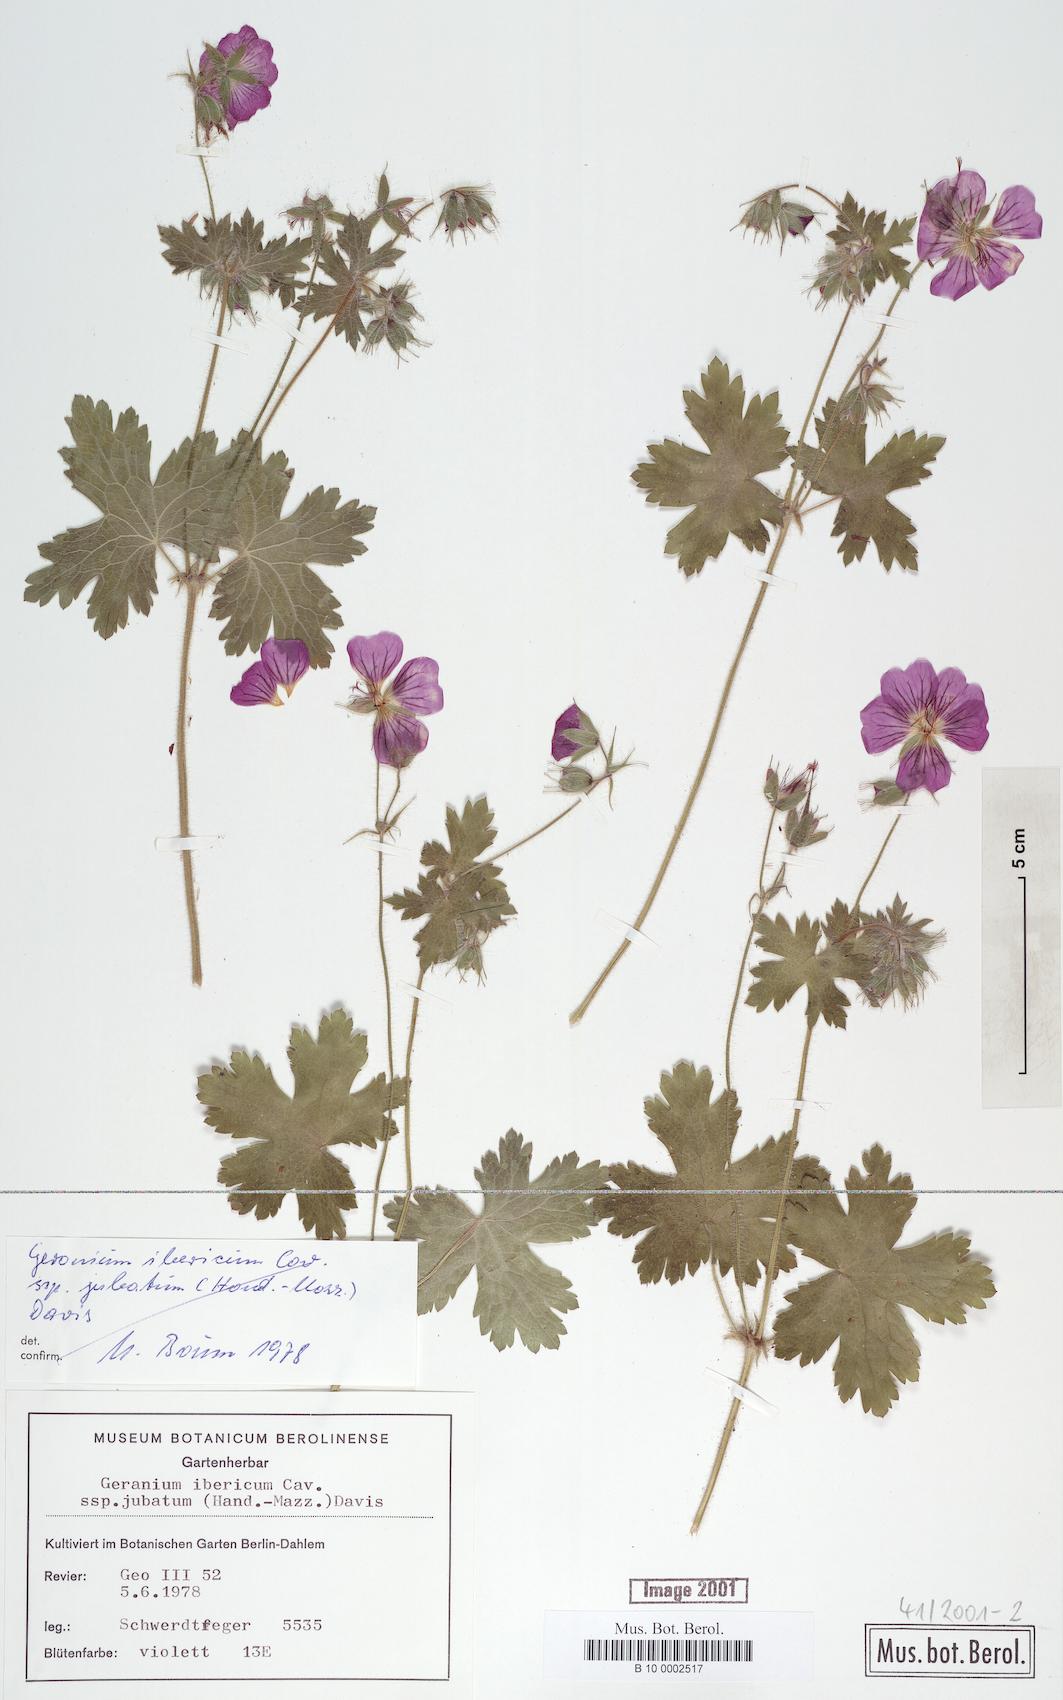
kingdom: Plantae
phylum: Tracheophyta
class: Magnoliopsida
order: Geraniales
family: Geraniaceae
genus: Geranium
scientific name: Geranium platypetalum
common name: Glandular crane's-bill
